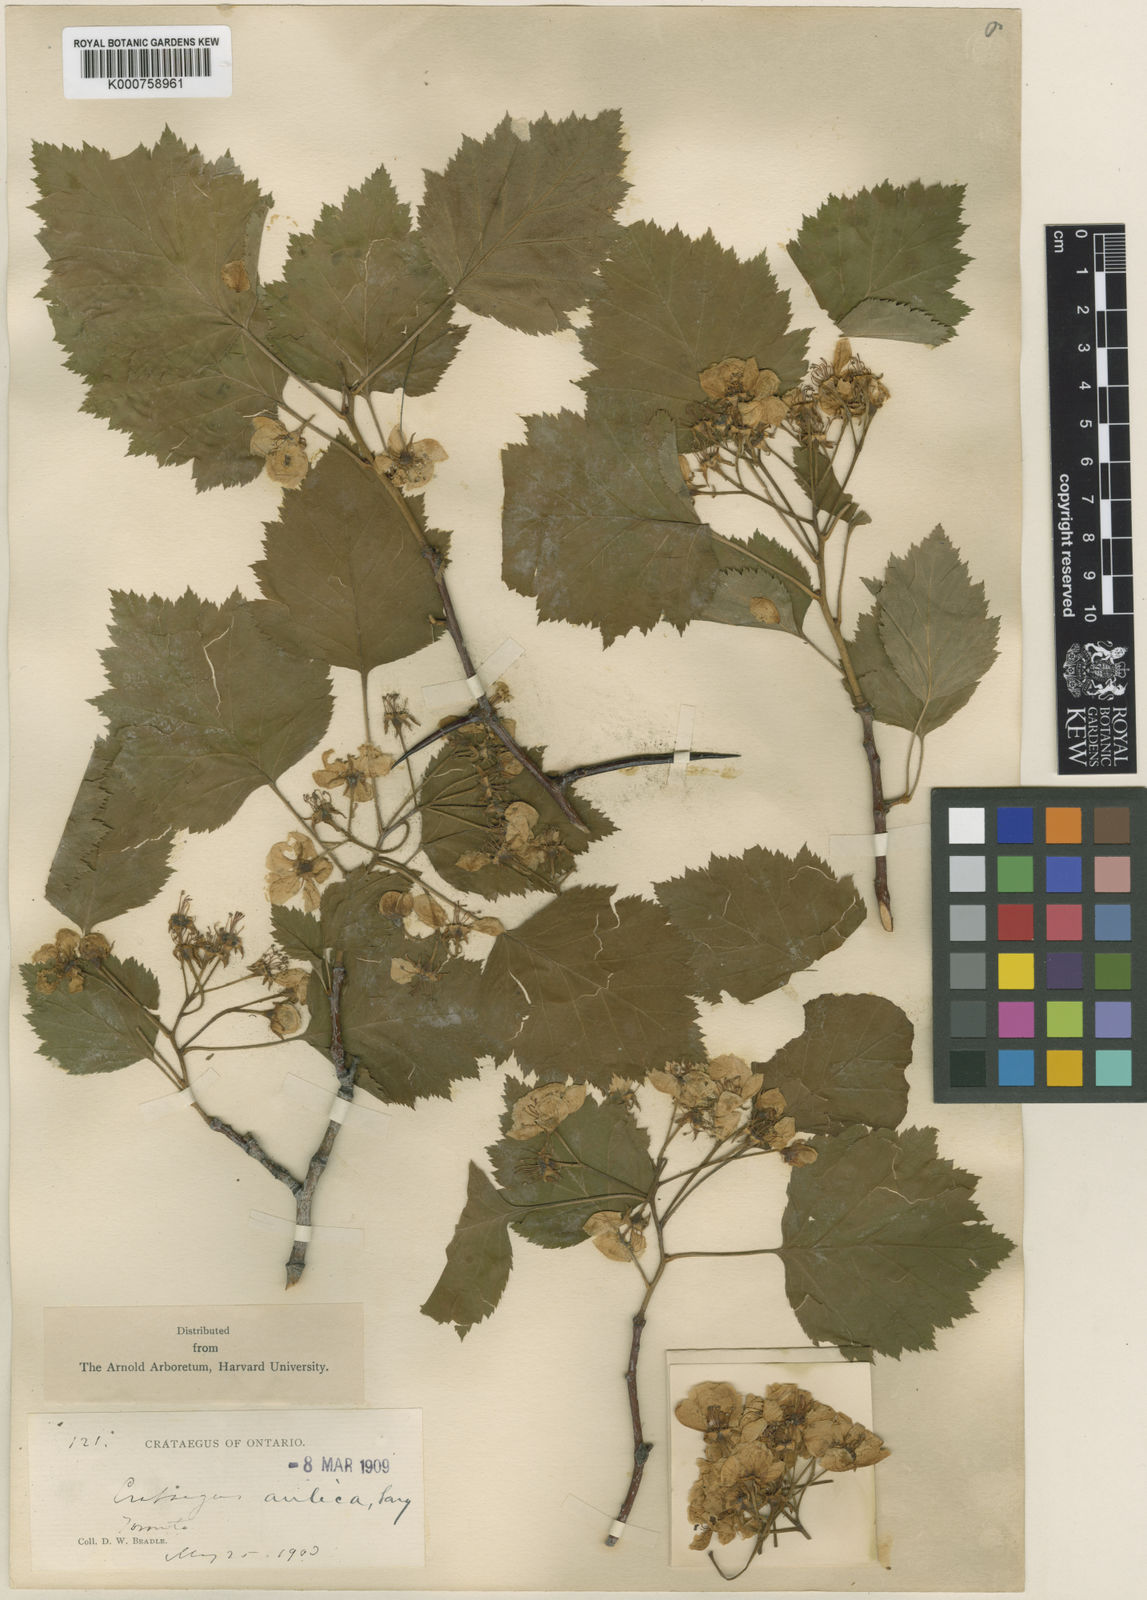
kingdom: Plantae
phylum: Tracheophyta
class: Magnoliopsida
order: Rosales
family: Rosaceae
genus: Crataegus
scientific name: Crataegus coccinea
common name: Scarlet hawthorn
